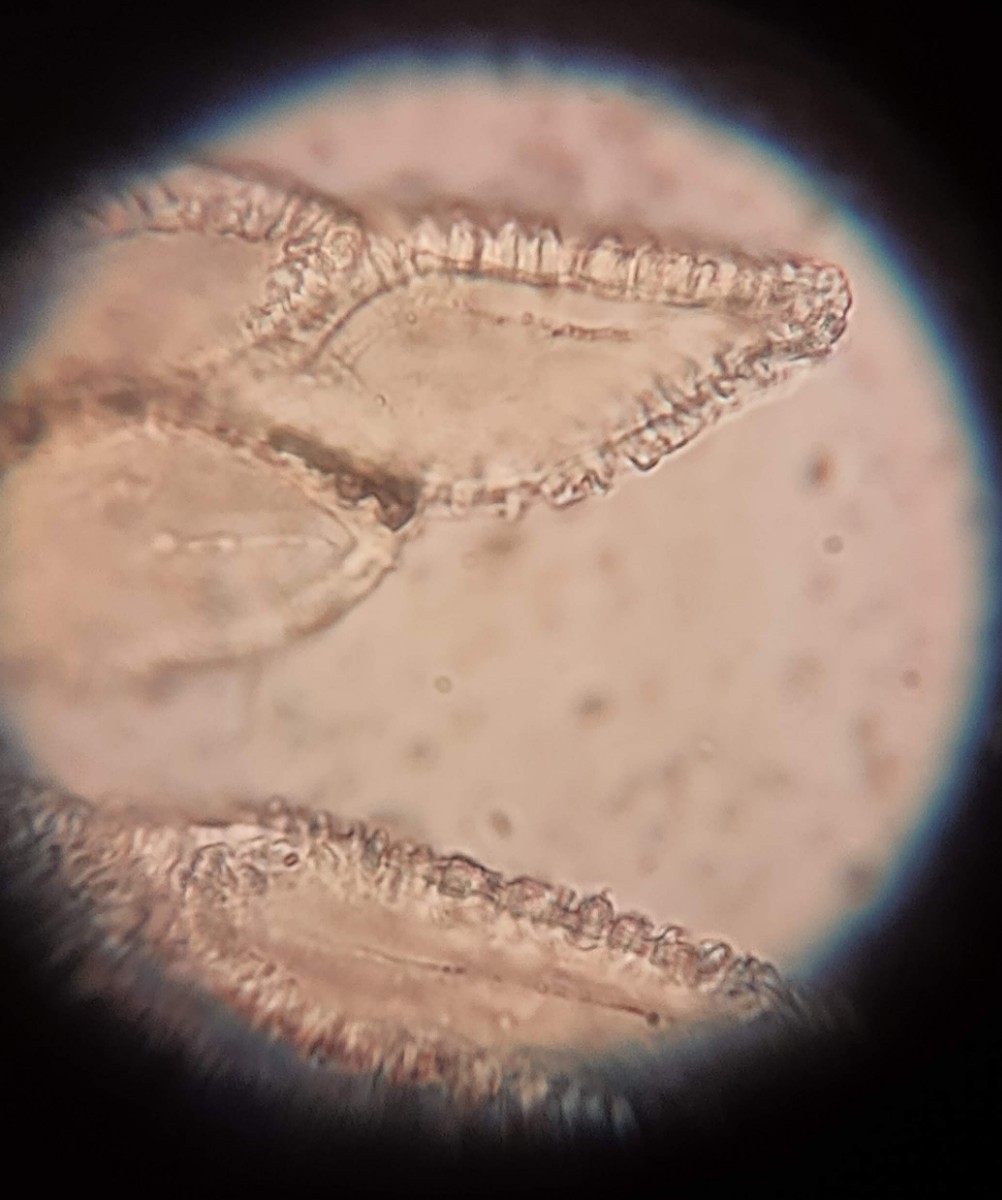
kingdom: Fungi
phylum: Basidiomycota
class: Pucciniomycetes
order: Pucciniales
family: Gymnosporangiaceae
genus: Gymnosporangium
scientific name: Gymnosporangium confusum
